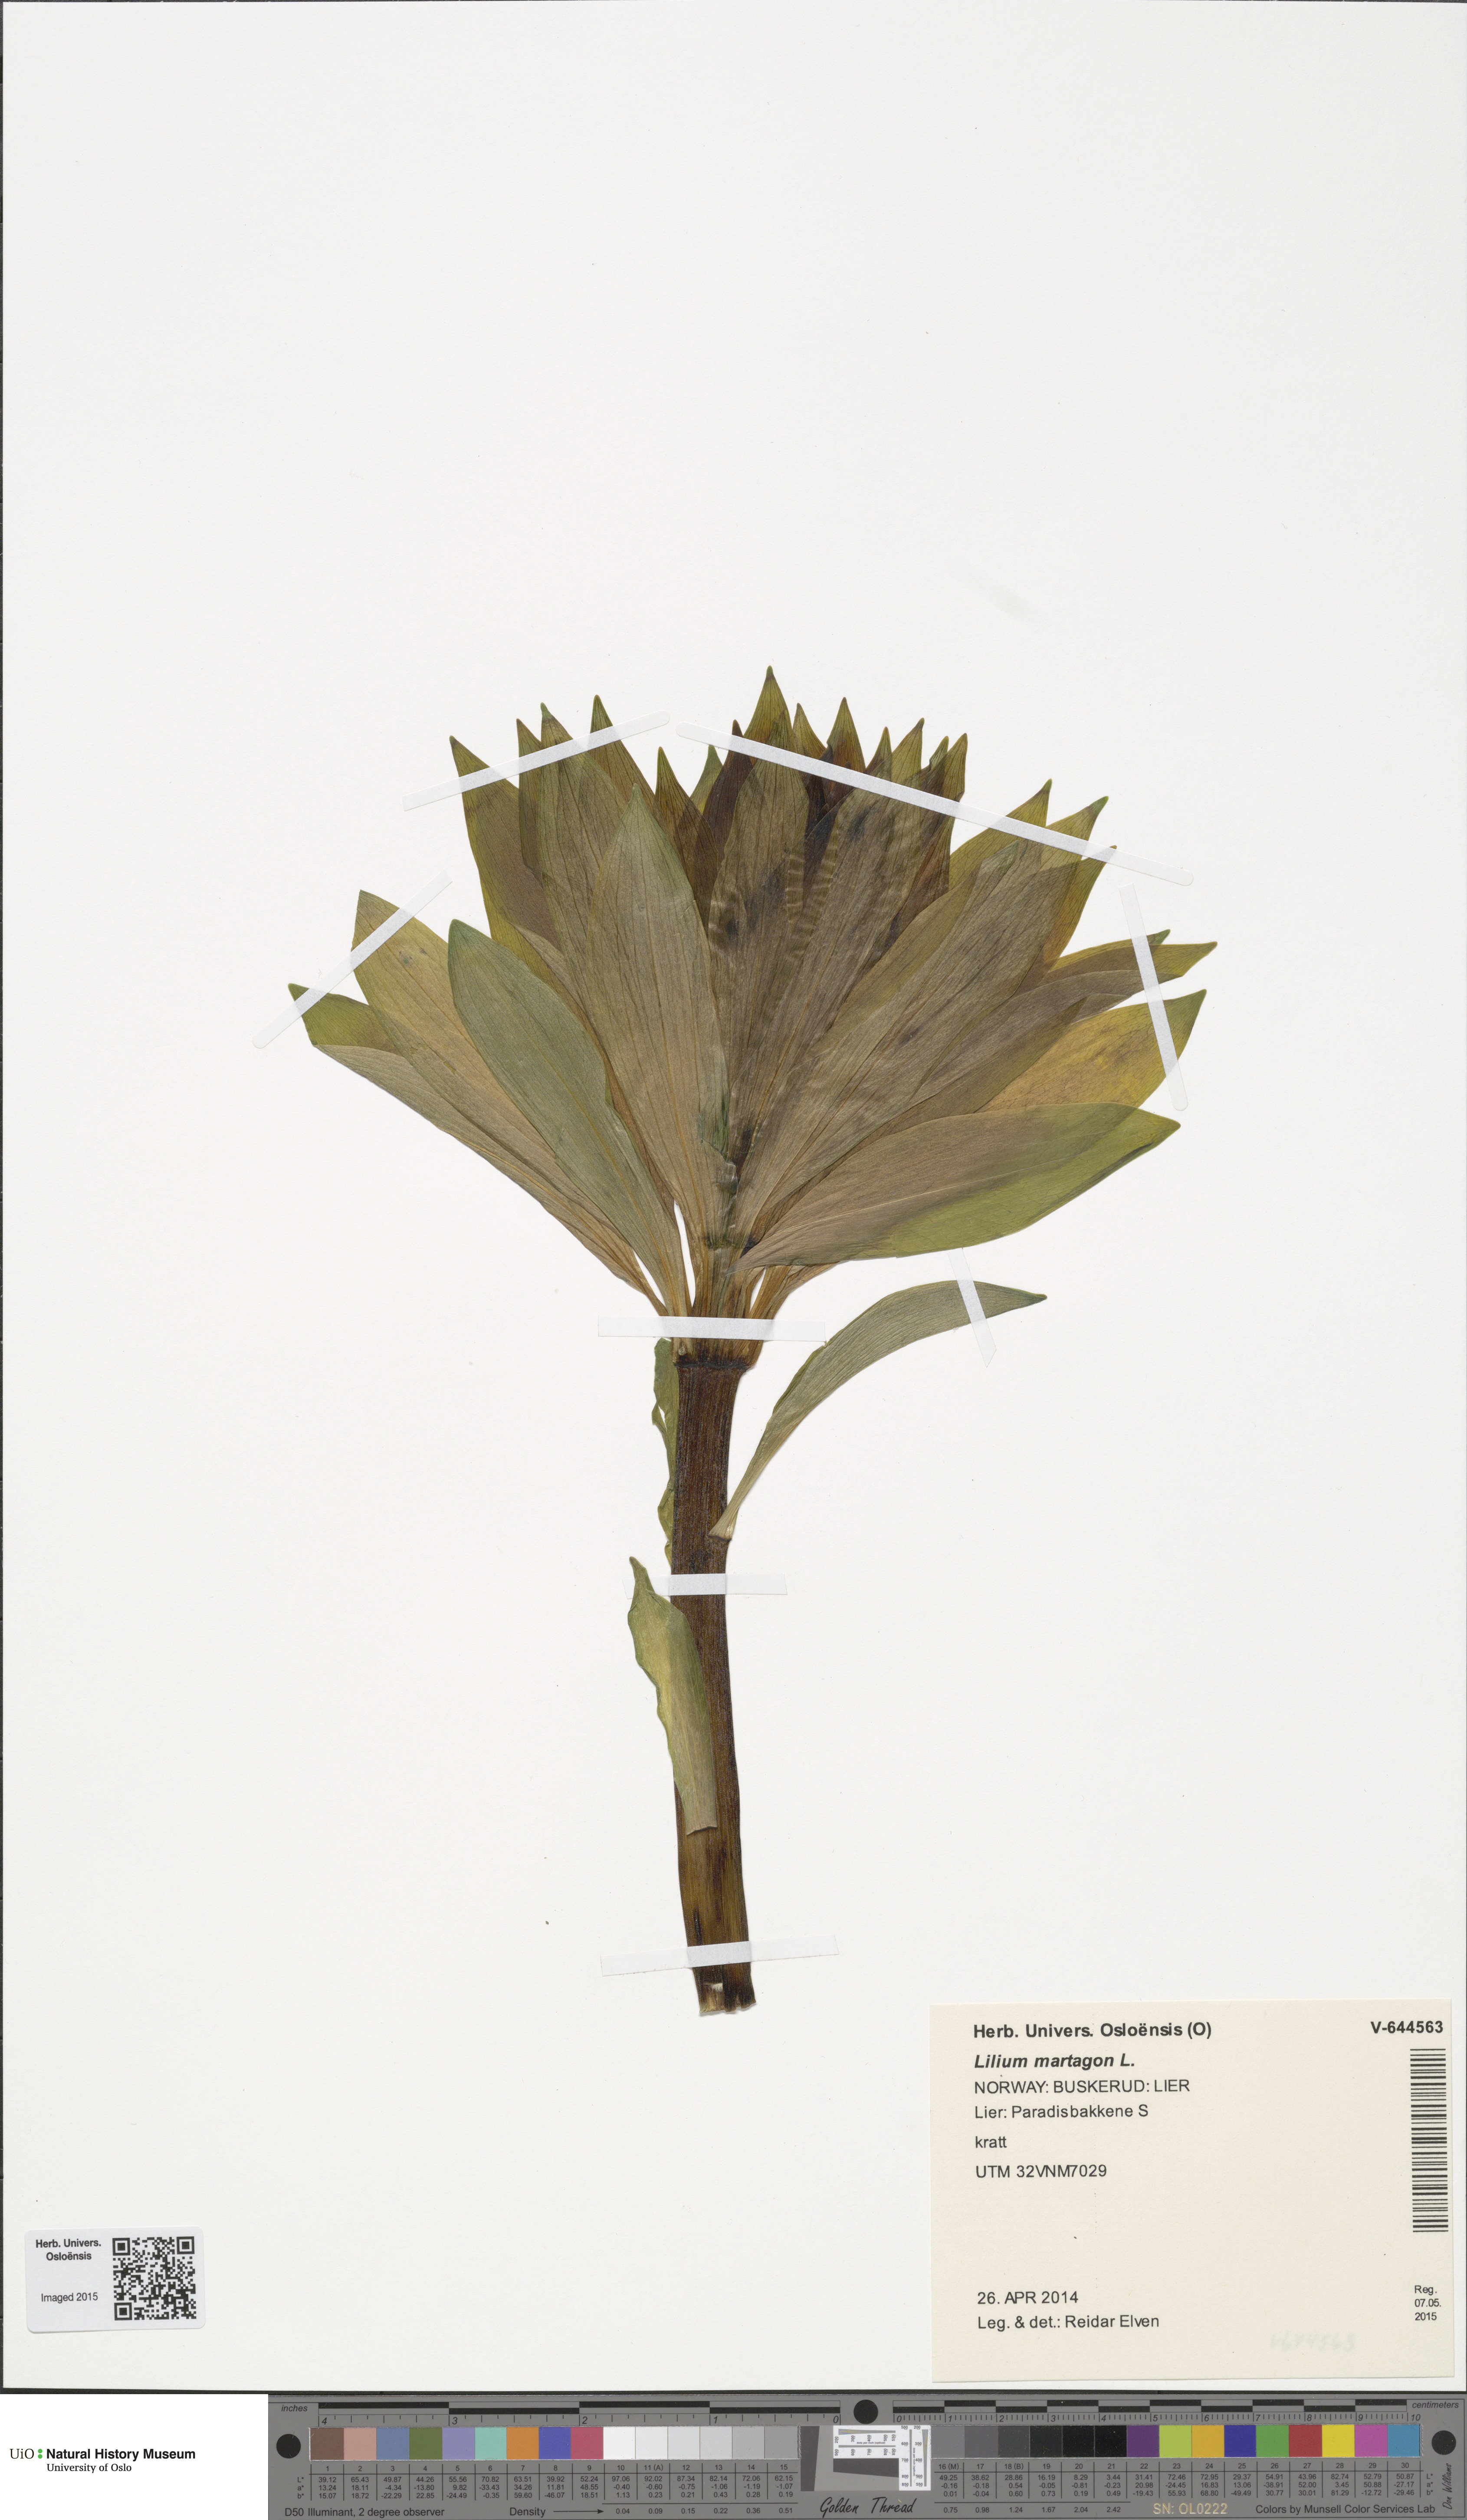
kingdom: Plantae
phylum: Tracheophyta
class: Liliopsida
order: Liliales
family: Liliaceae
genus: Lilium
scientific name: Lilium martagon
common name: Martagon lily
